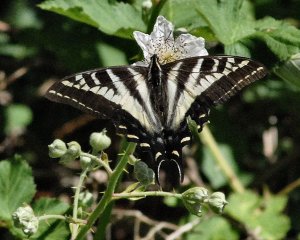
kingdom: Animalia
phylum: Arthropoda
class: Insecta
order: Lepidoptera
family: Papilionidae
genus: Pterourus
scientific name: Pterourus eurymedon
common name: Pale Swallowtail
